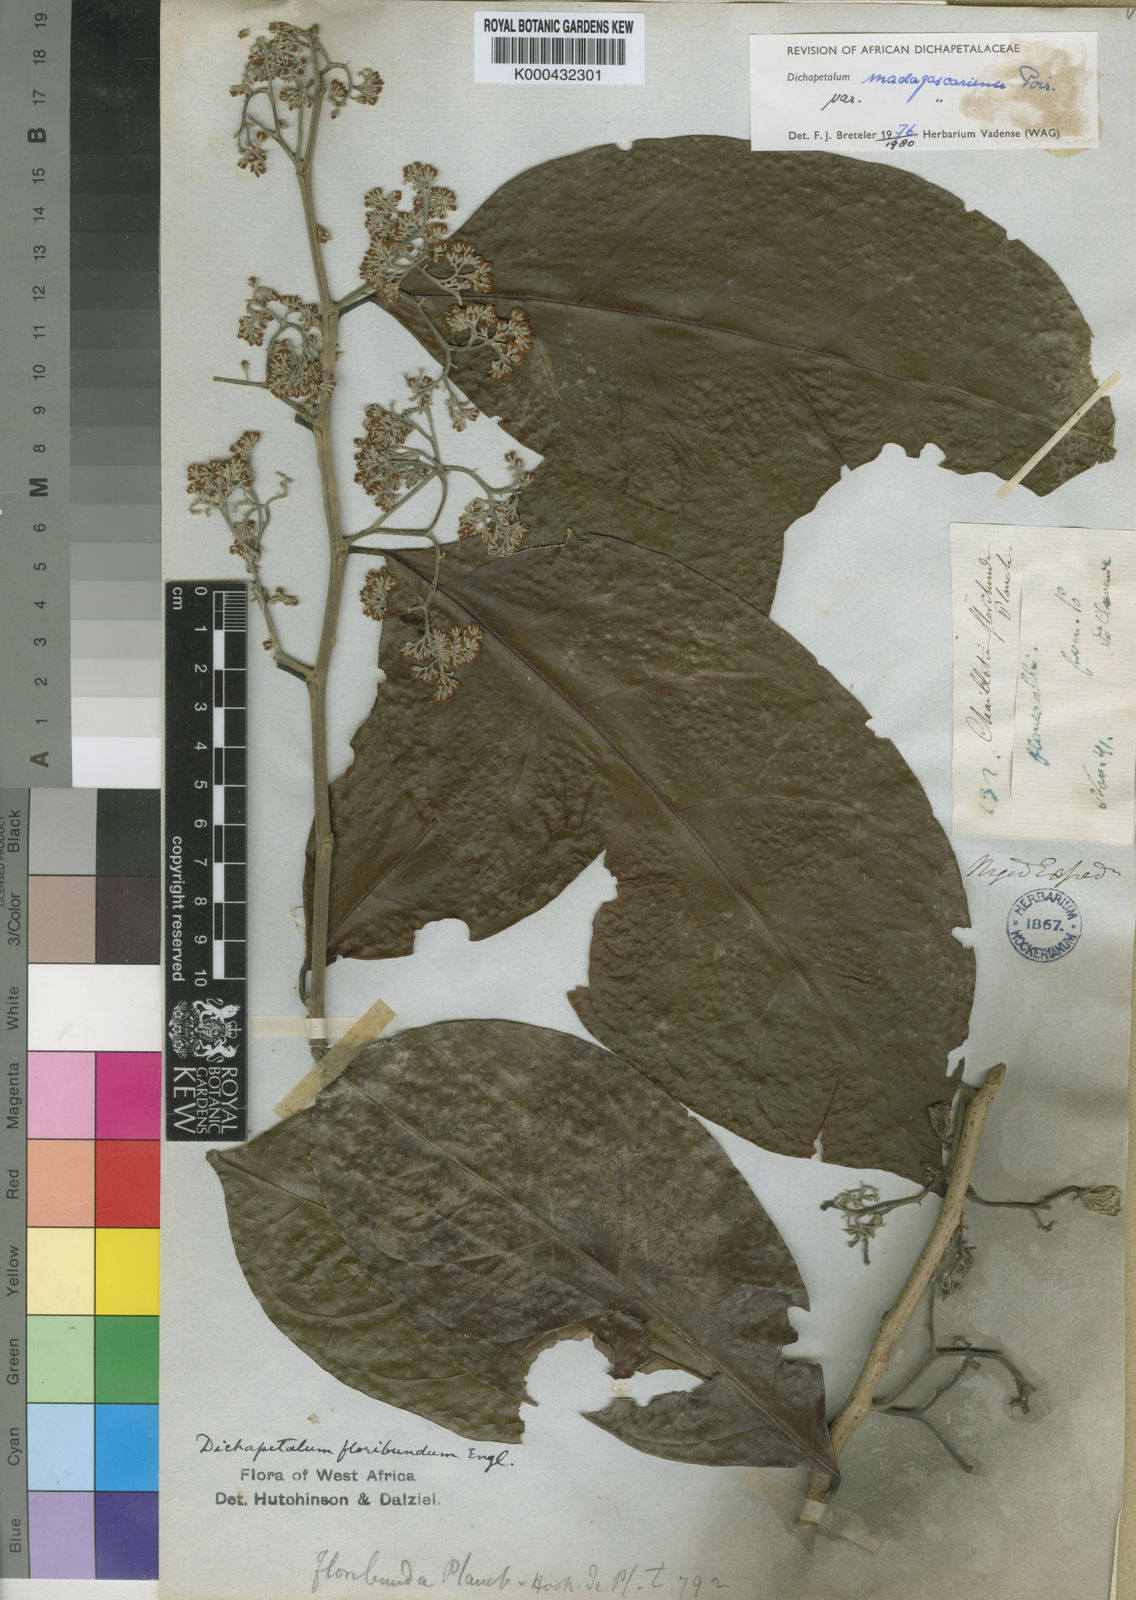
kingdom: Plantae
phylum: Tracheophyta
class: Magnoliopsida
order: Malpighiales
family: Dichapetalaceae
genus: Dichapetalum
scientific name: Dichapetalum madagascariense
